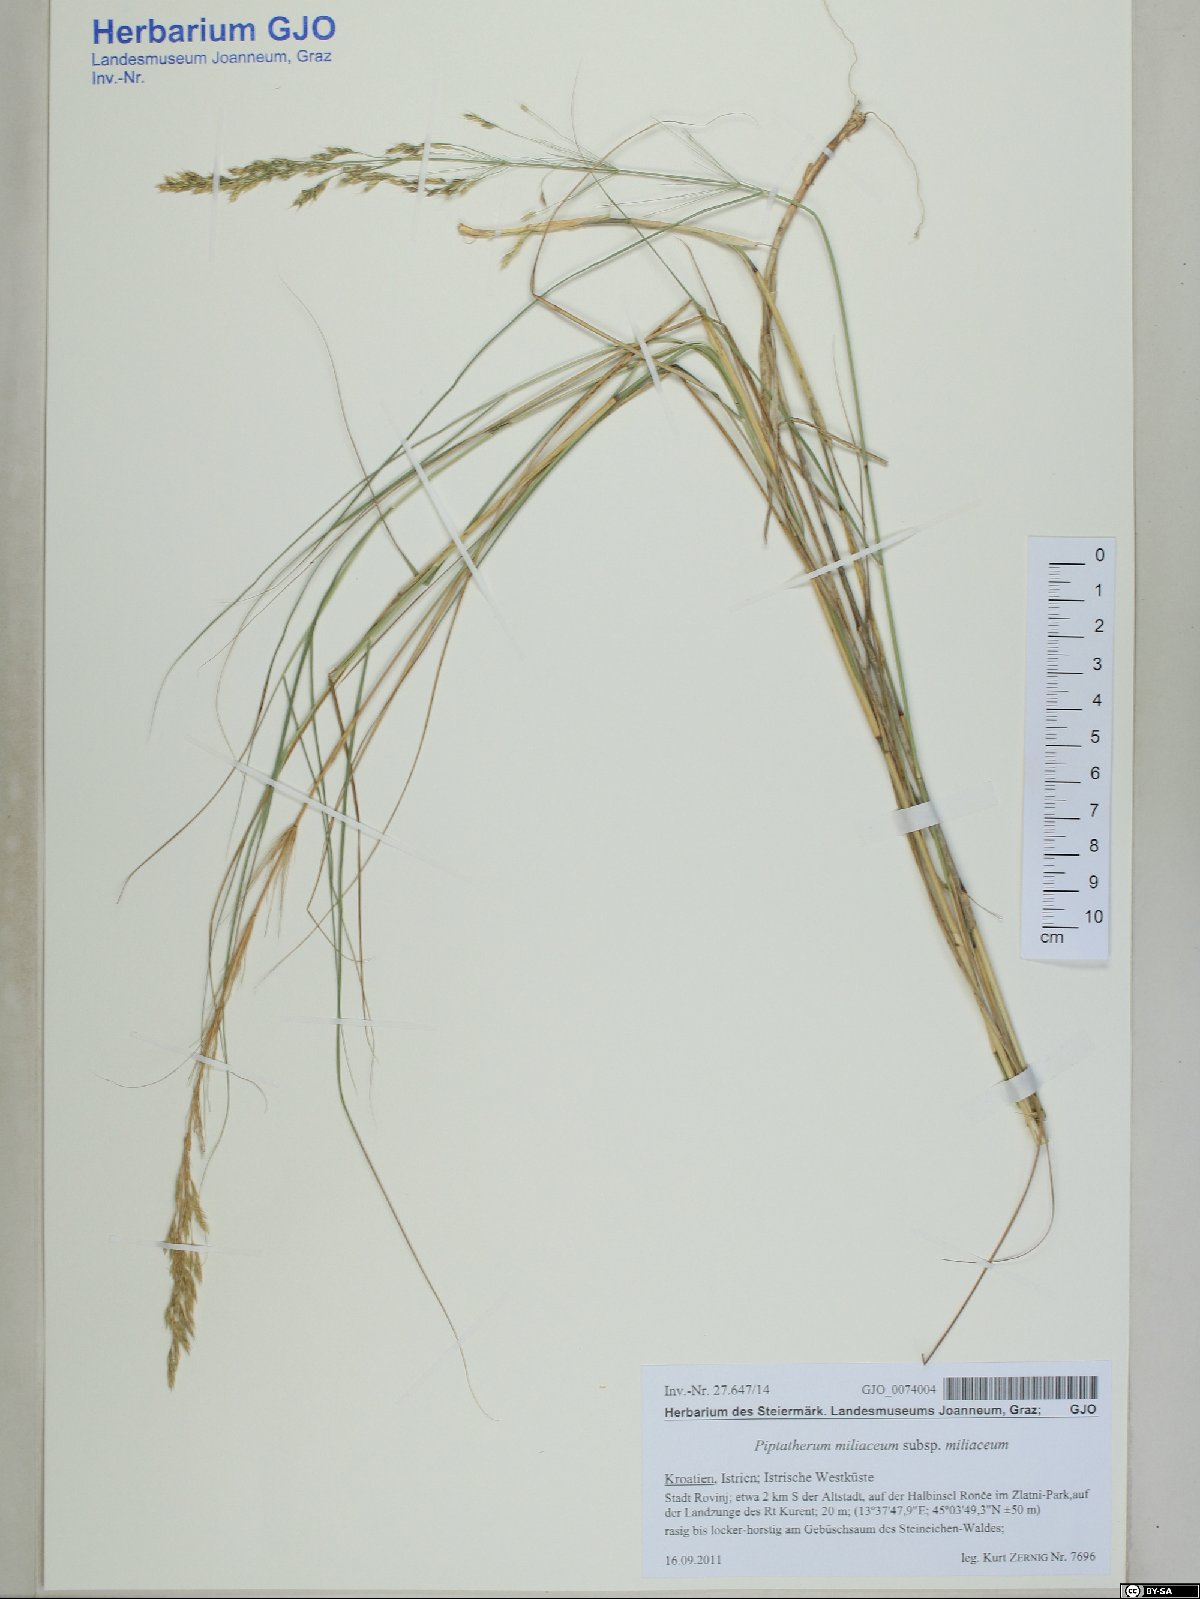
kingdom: Plantae
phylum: Tracheophyta
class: Liliopsida
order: Poales
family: Poaceae
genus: Oloptum
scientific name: Oloptum miliaceum
